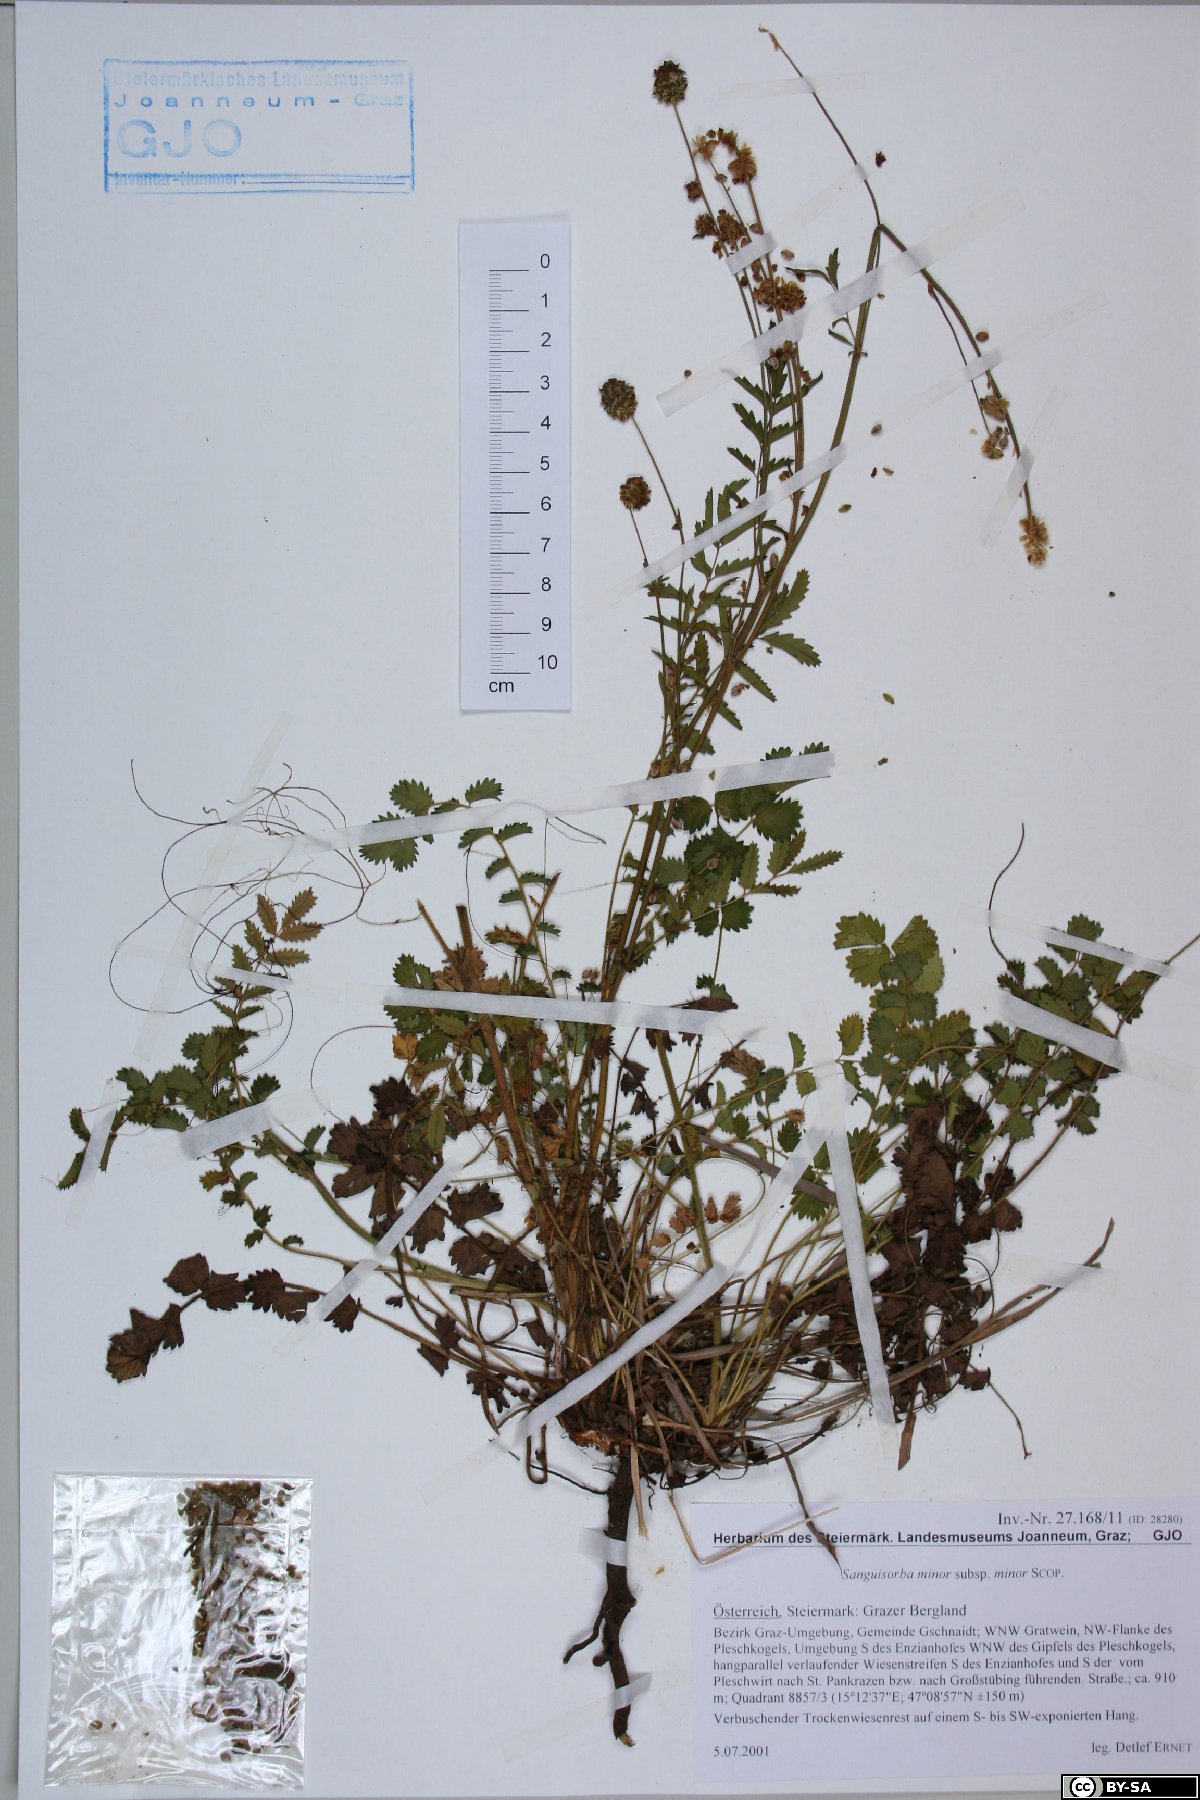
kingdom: Plantae
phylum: Tracheophyta
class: Magnoliopsida
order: Rosales
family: Rosaceae
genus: Poterium
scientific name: Poterium sanguisorba
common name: Salad burnet
